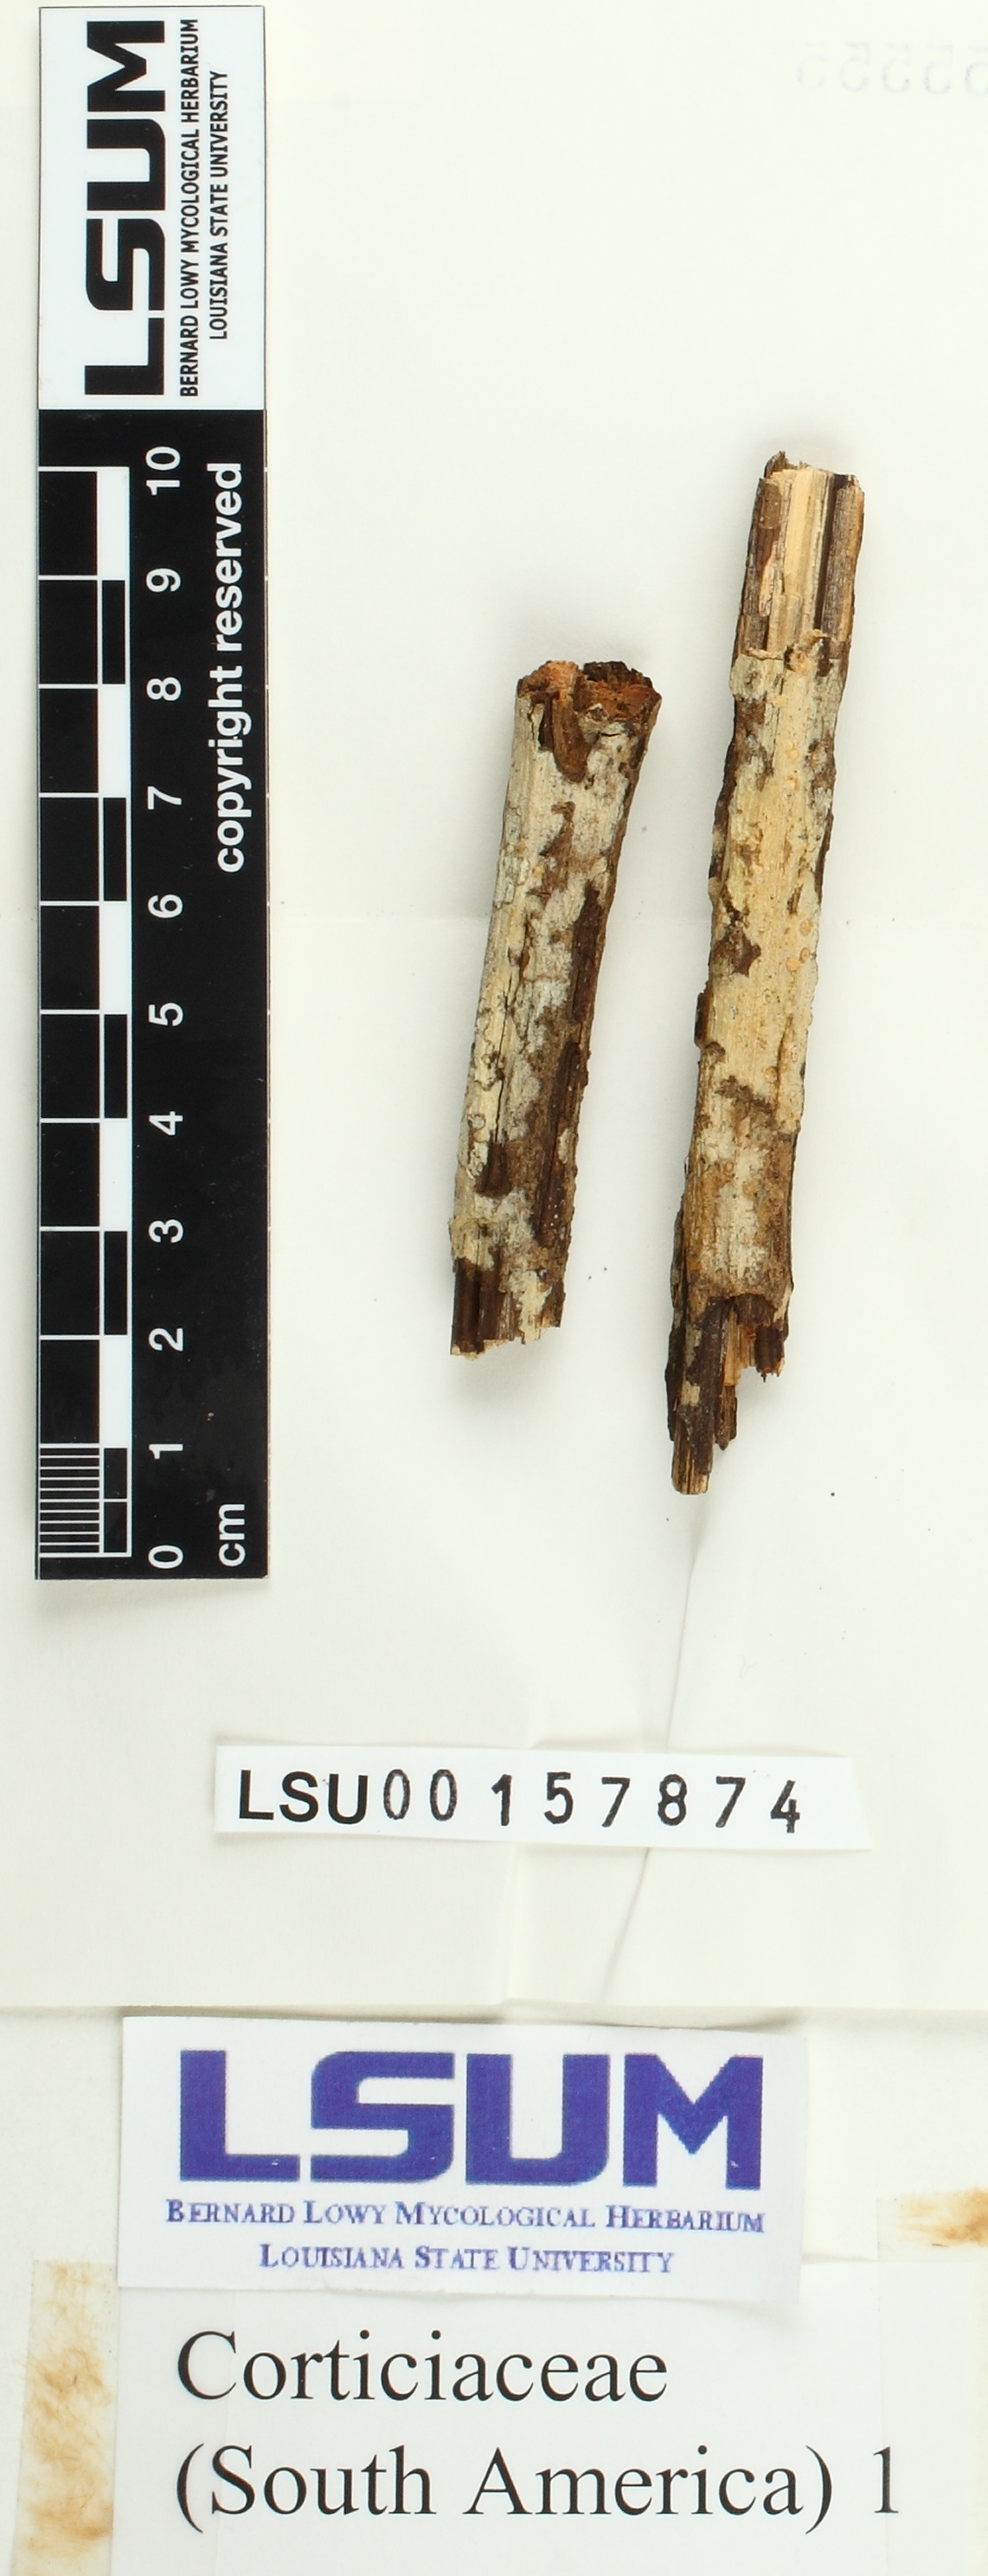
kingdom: Fungi
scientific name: Fungi
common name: Fungi
